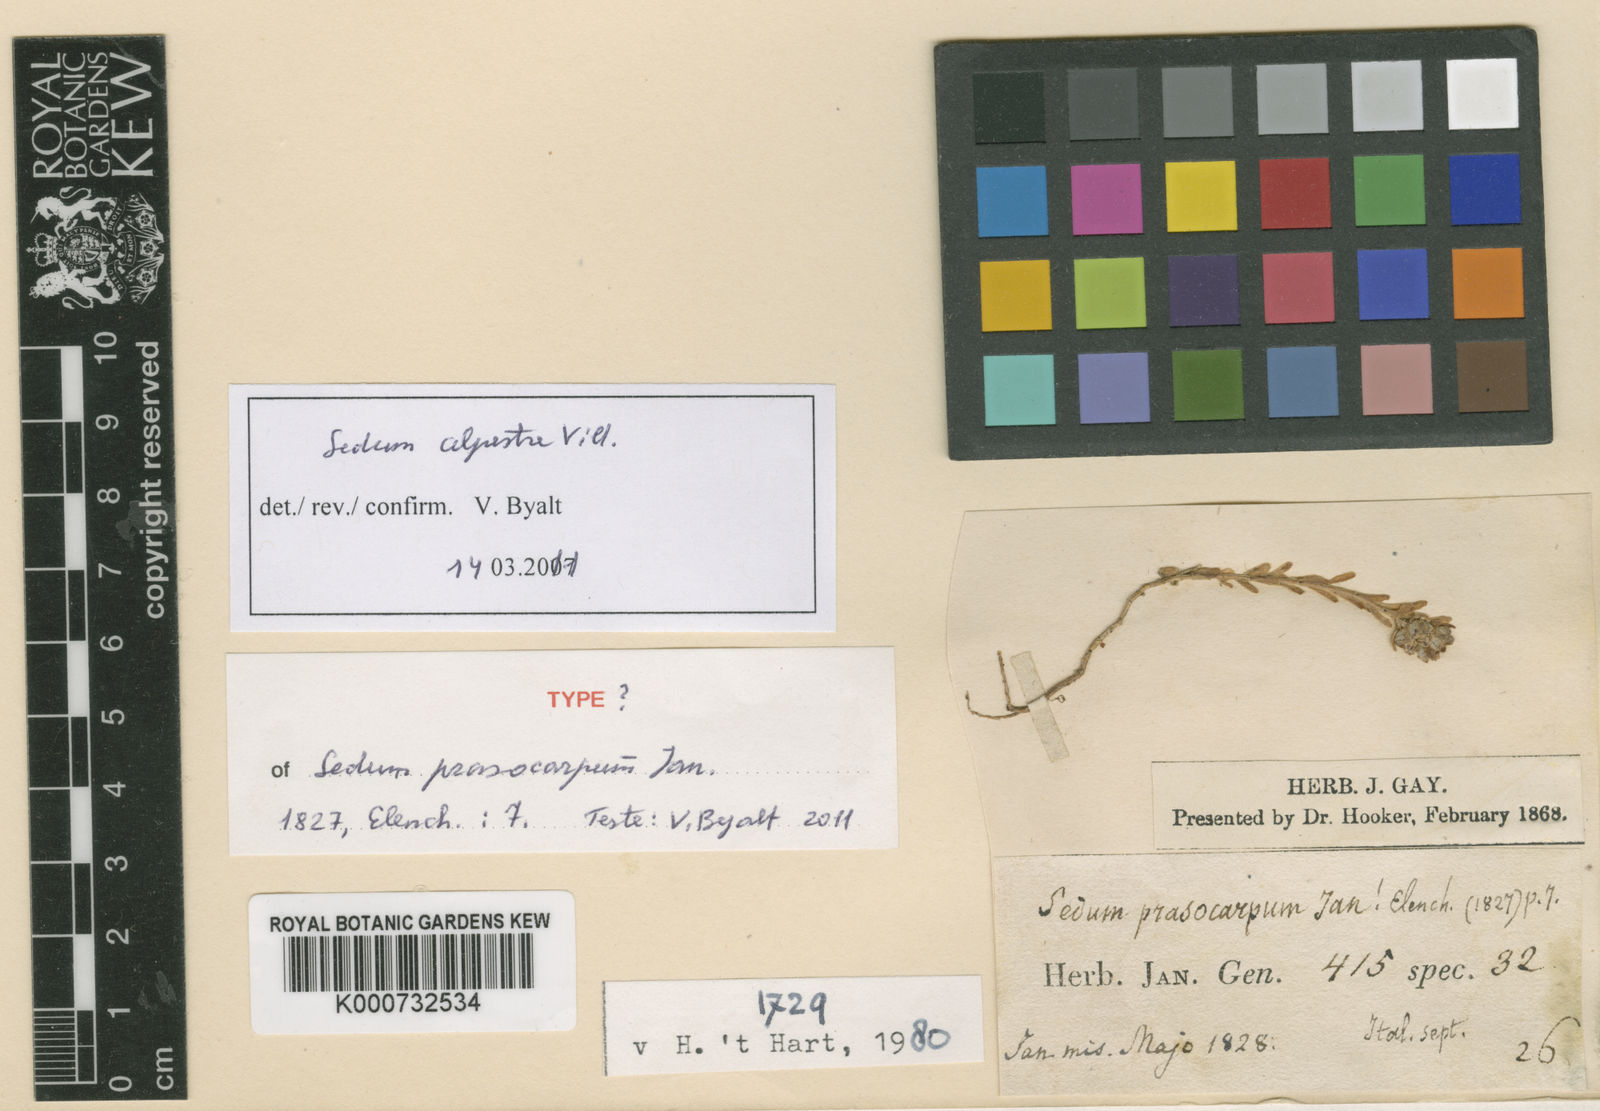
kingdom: Plantae
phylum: Tracheophyta
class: Magnoliopsida
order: Saxifragales
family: Crassulaceae
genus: Sedum
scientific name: Sedum alpestre
